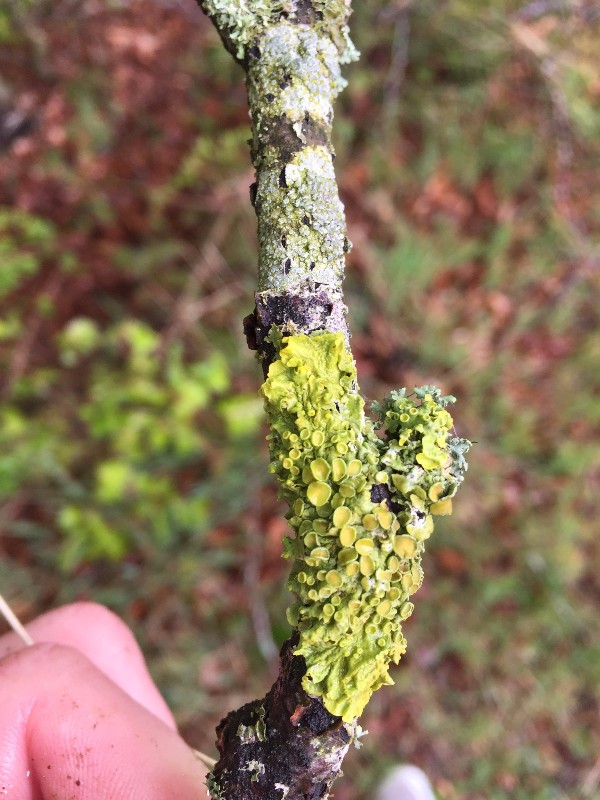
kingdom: Fungi
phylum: Ascomycota
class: Lecanoromycetes
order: Teloschistales
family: Teloschistaceae
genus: Xanthoria
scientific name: Xanthoria parietina
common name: almindelig væggelav
